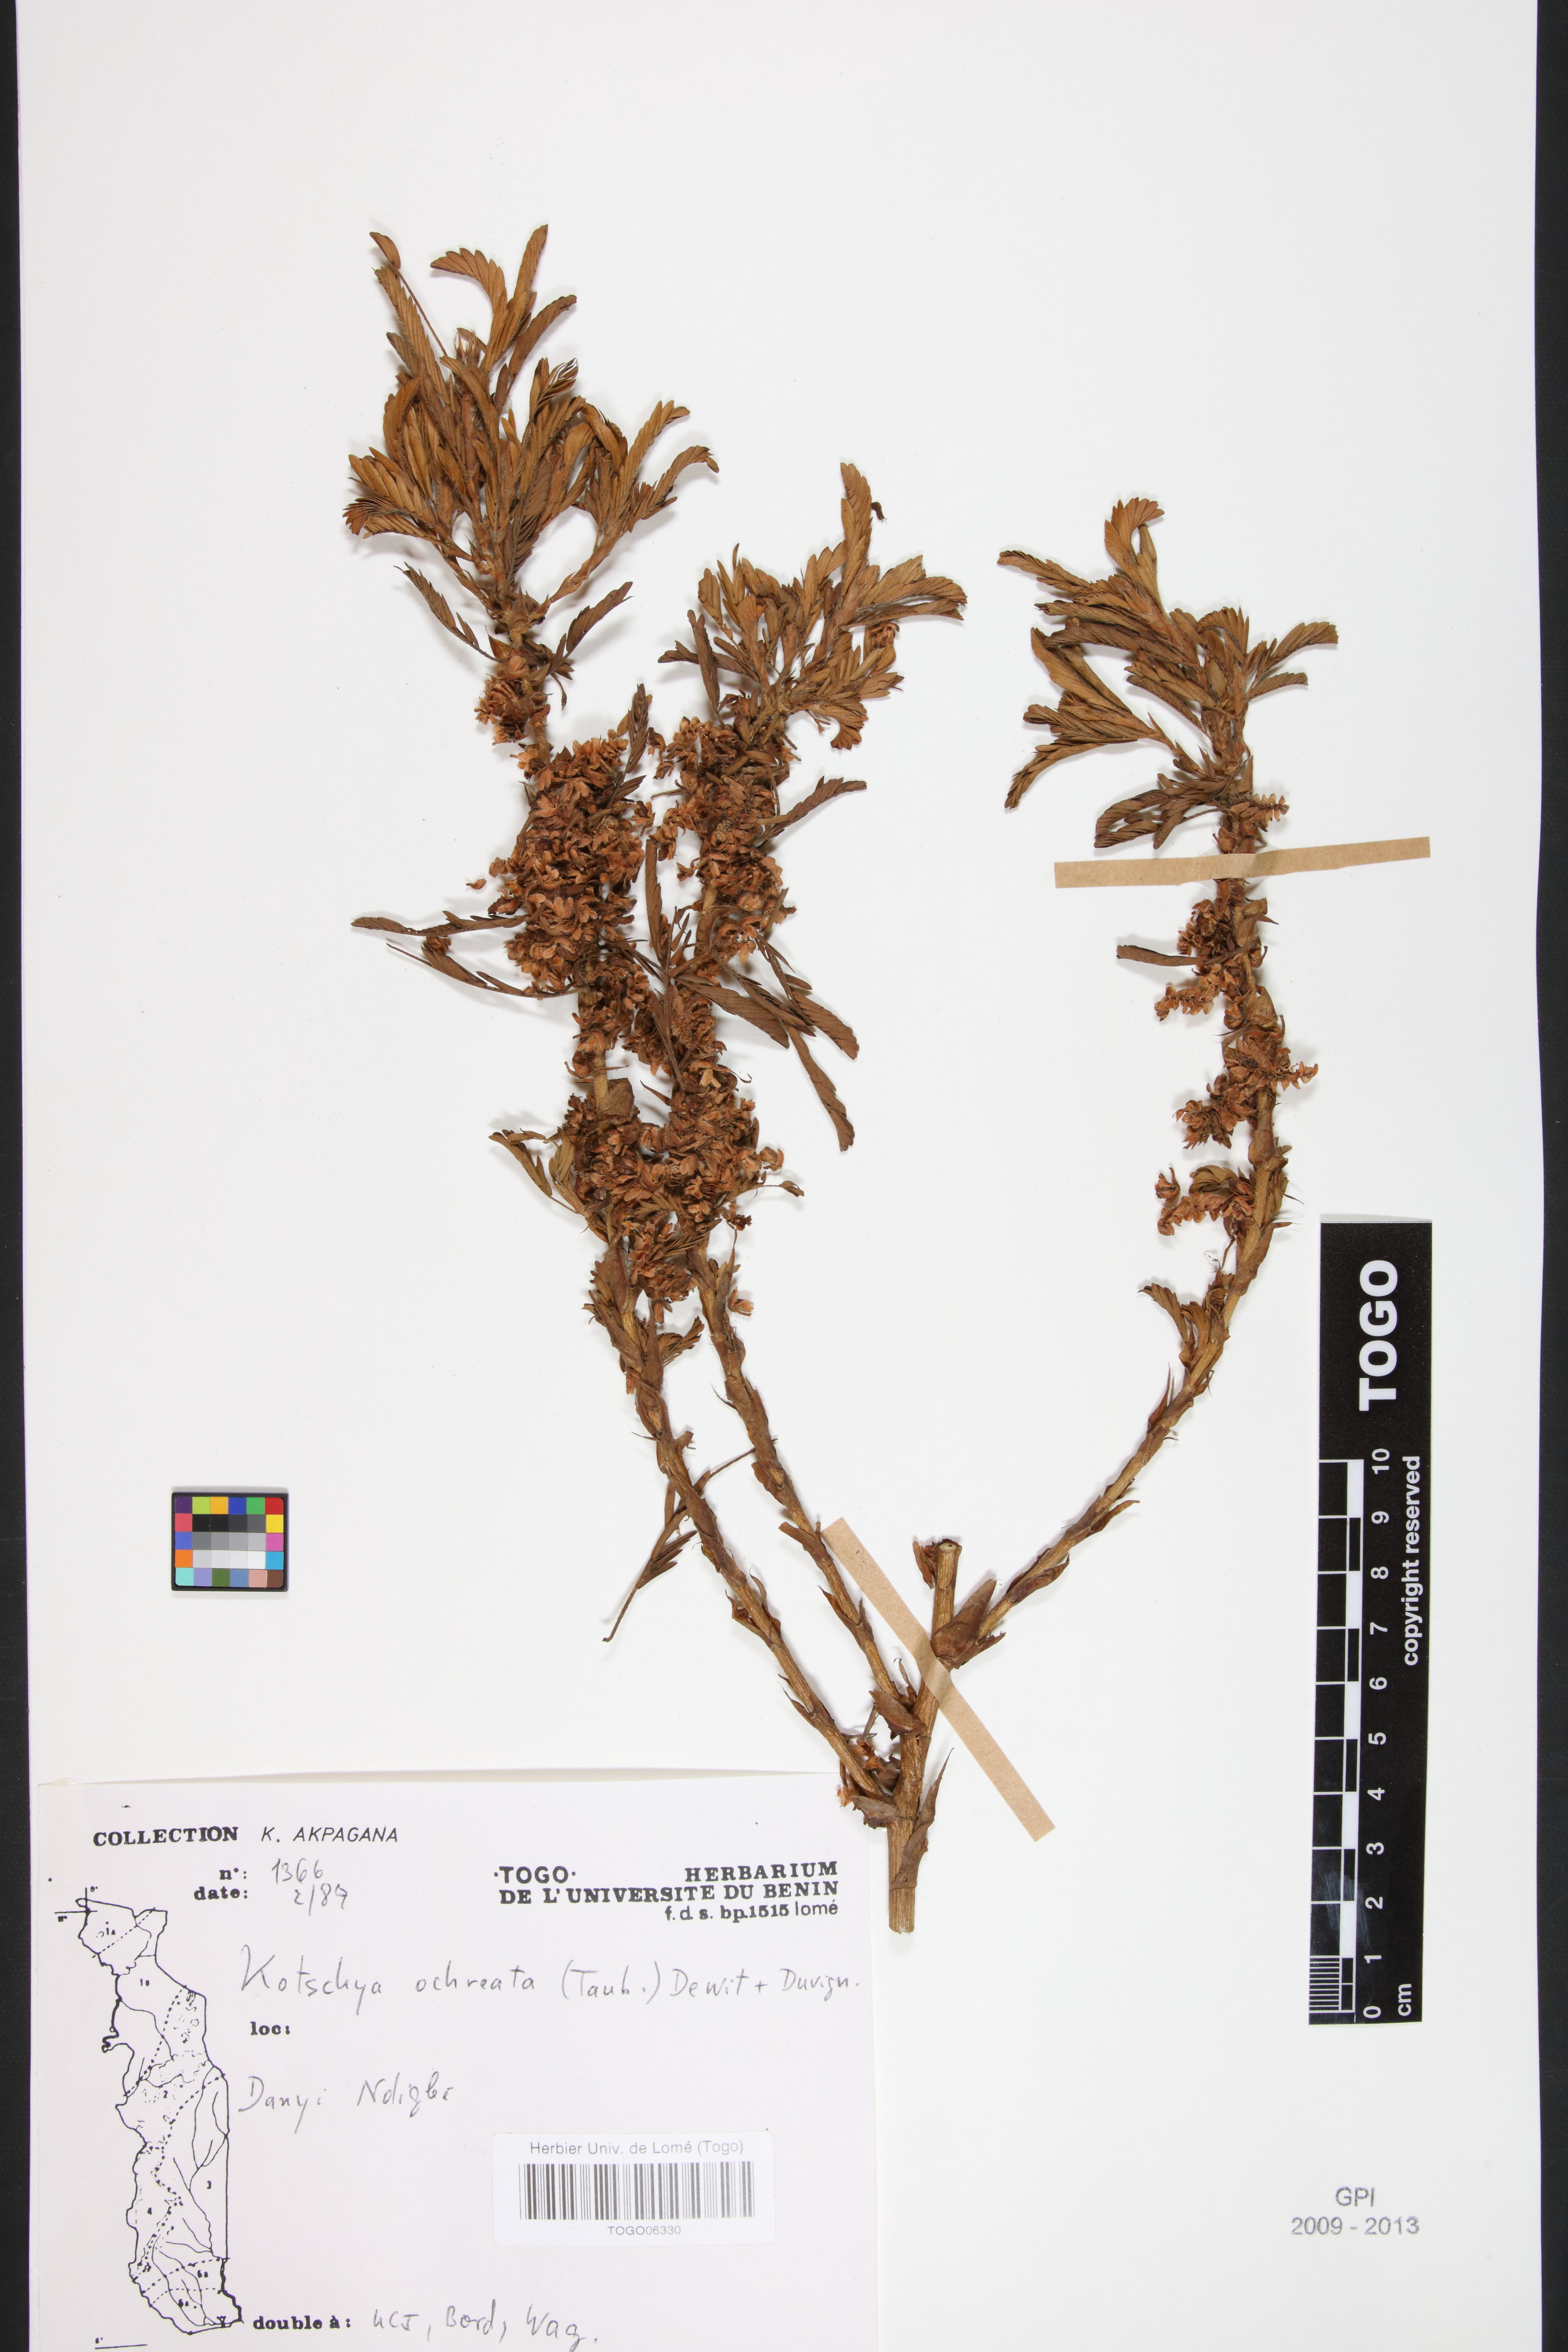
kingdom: Plantae
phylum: Tracheophyta
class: Magnoliopsida
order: Fabales
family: Fabaceae
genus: Kotschya
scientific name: Kotschya ochreata
